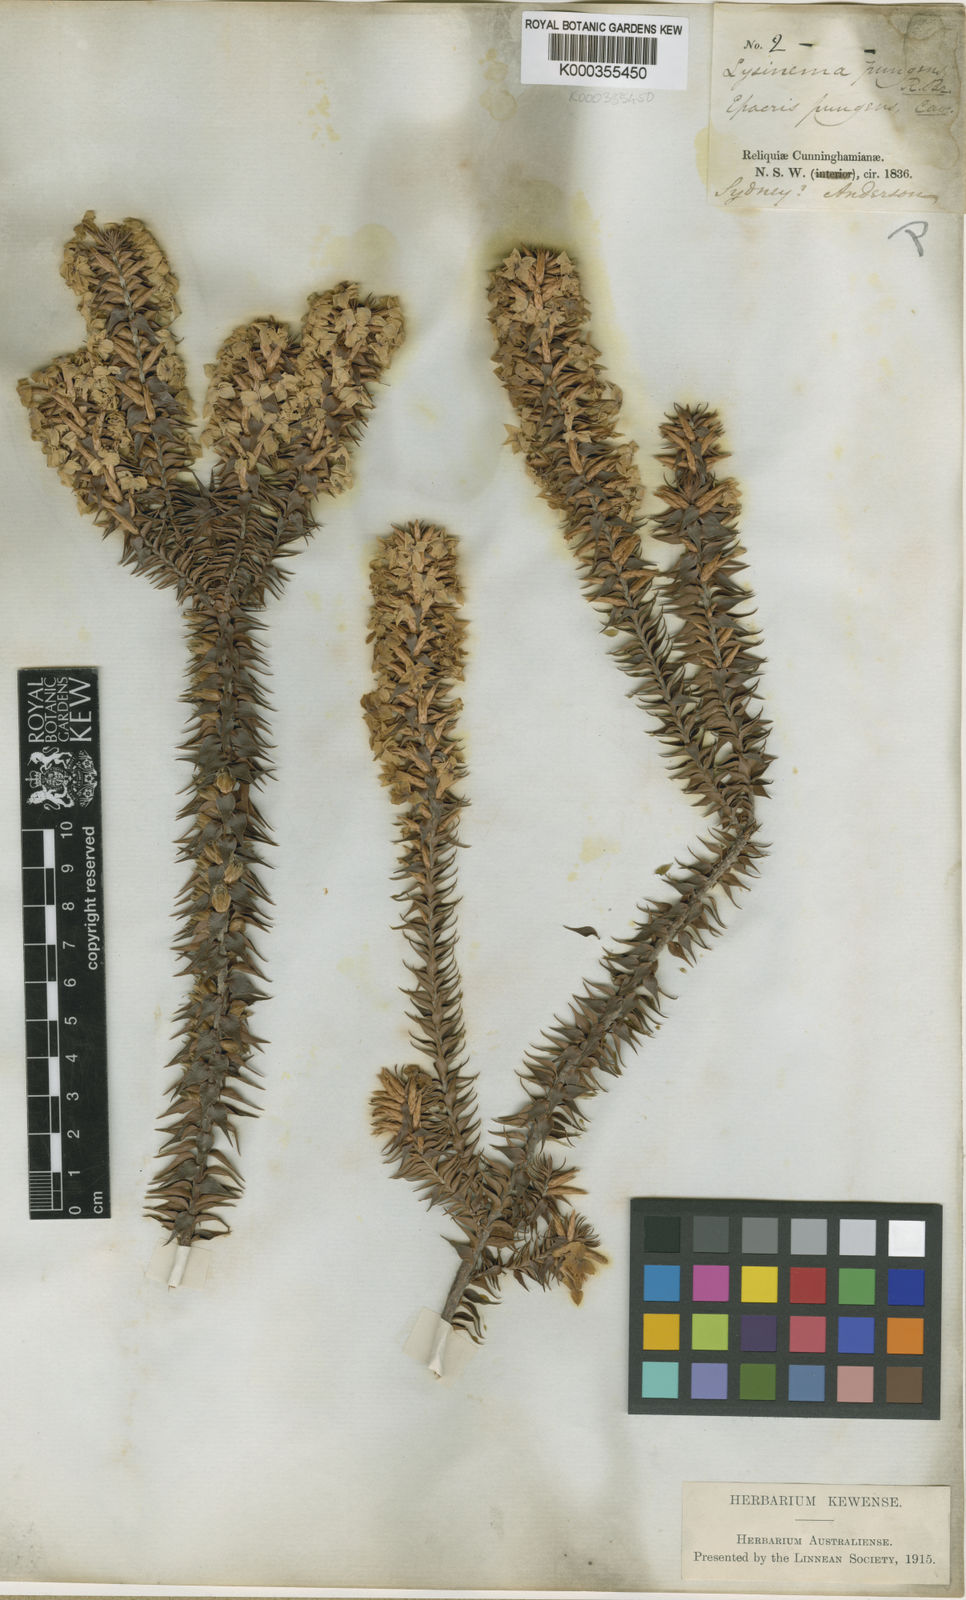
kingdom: Plantae
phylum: Tracheophyta
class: Magnoliopsida
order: Ericales
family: Ericaceae
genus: Woollsia
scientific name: Woollsia pungens
